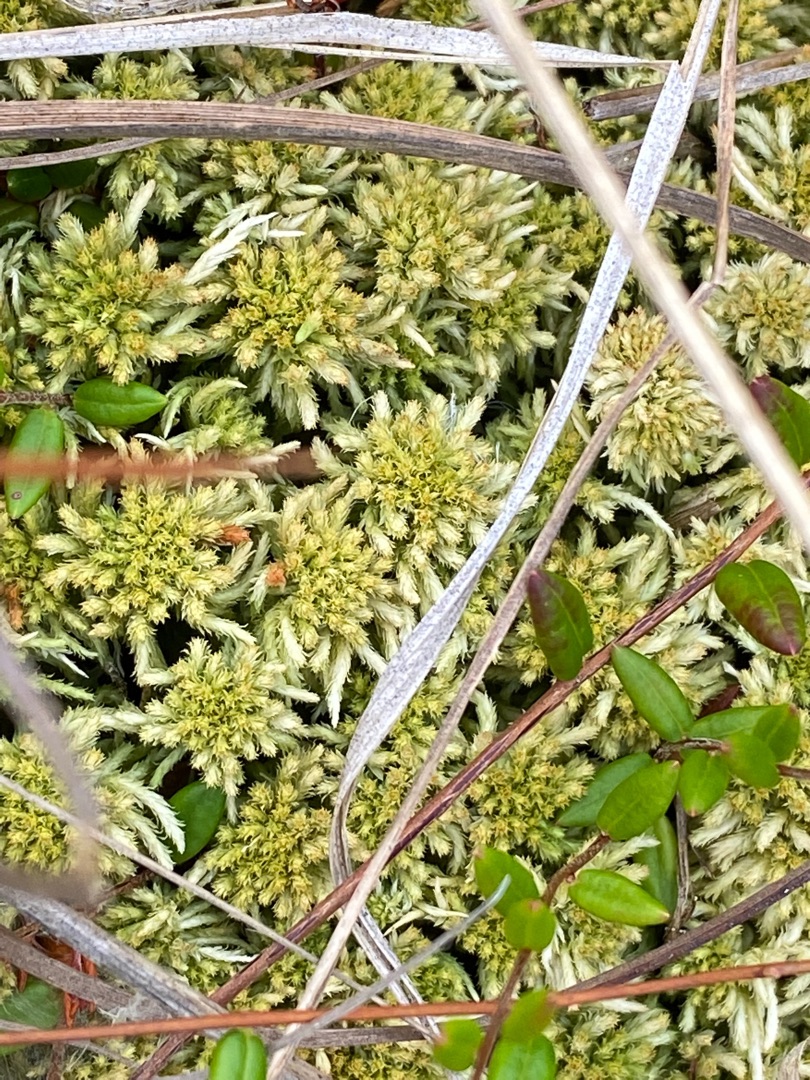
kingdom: Plantae
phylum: Bryophyta
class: Sphagnopsida
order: Sphagnales
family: Sphagnaceae
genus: Sphagnum
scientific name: Sphagnum
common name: Tørvemosslægten
